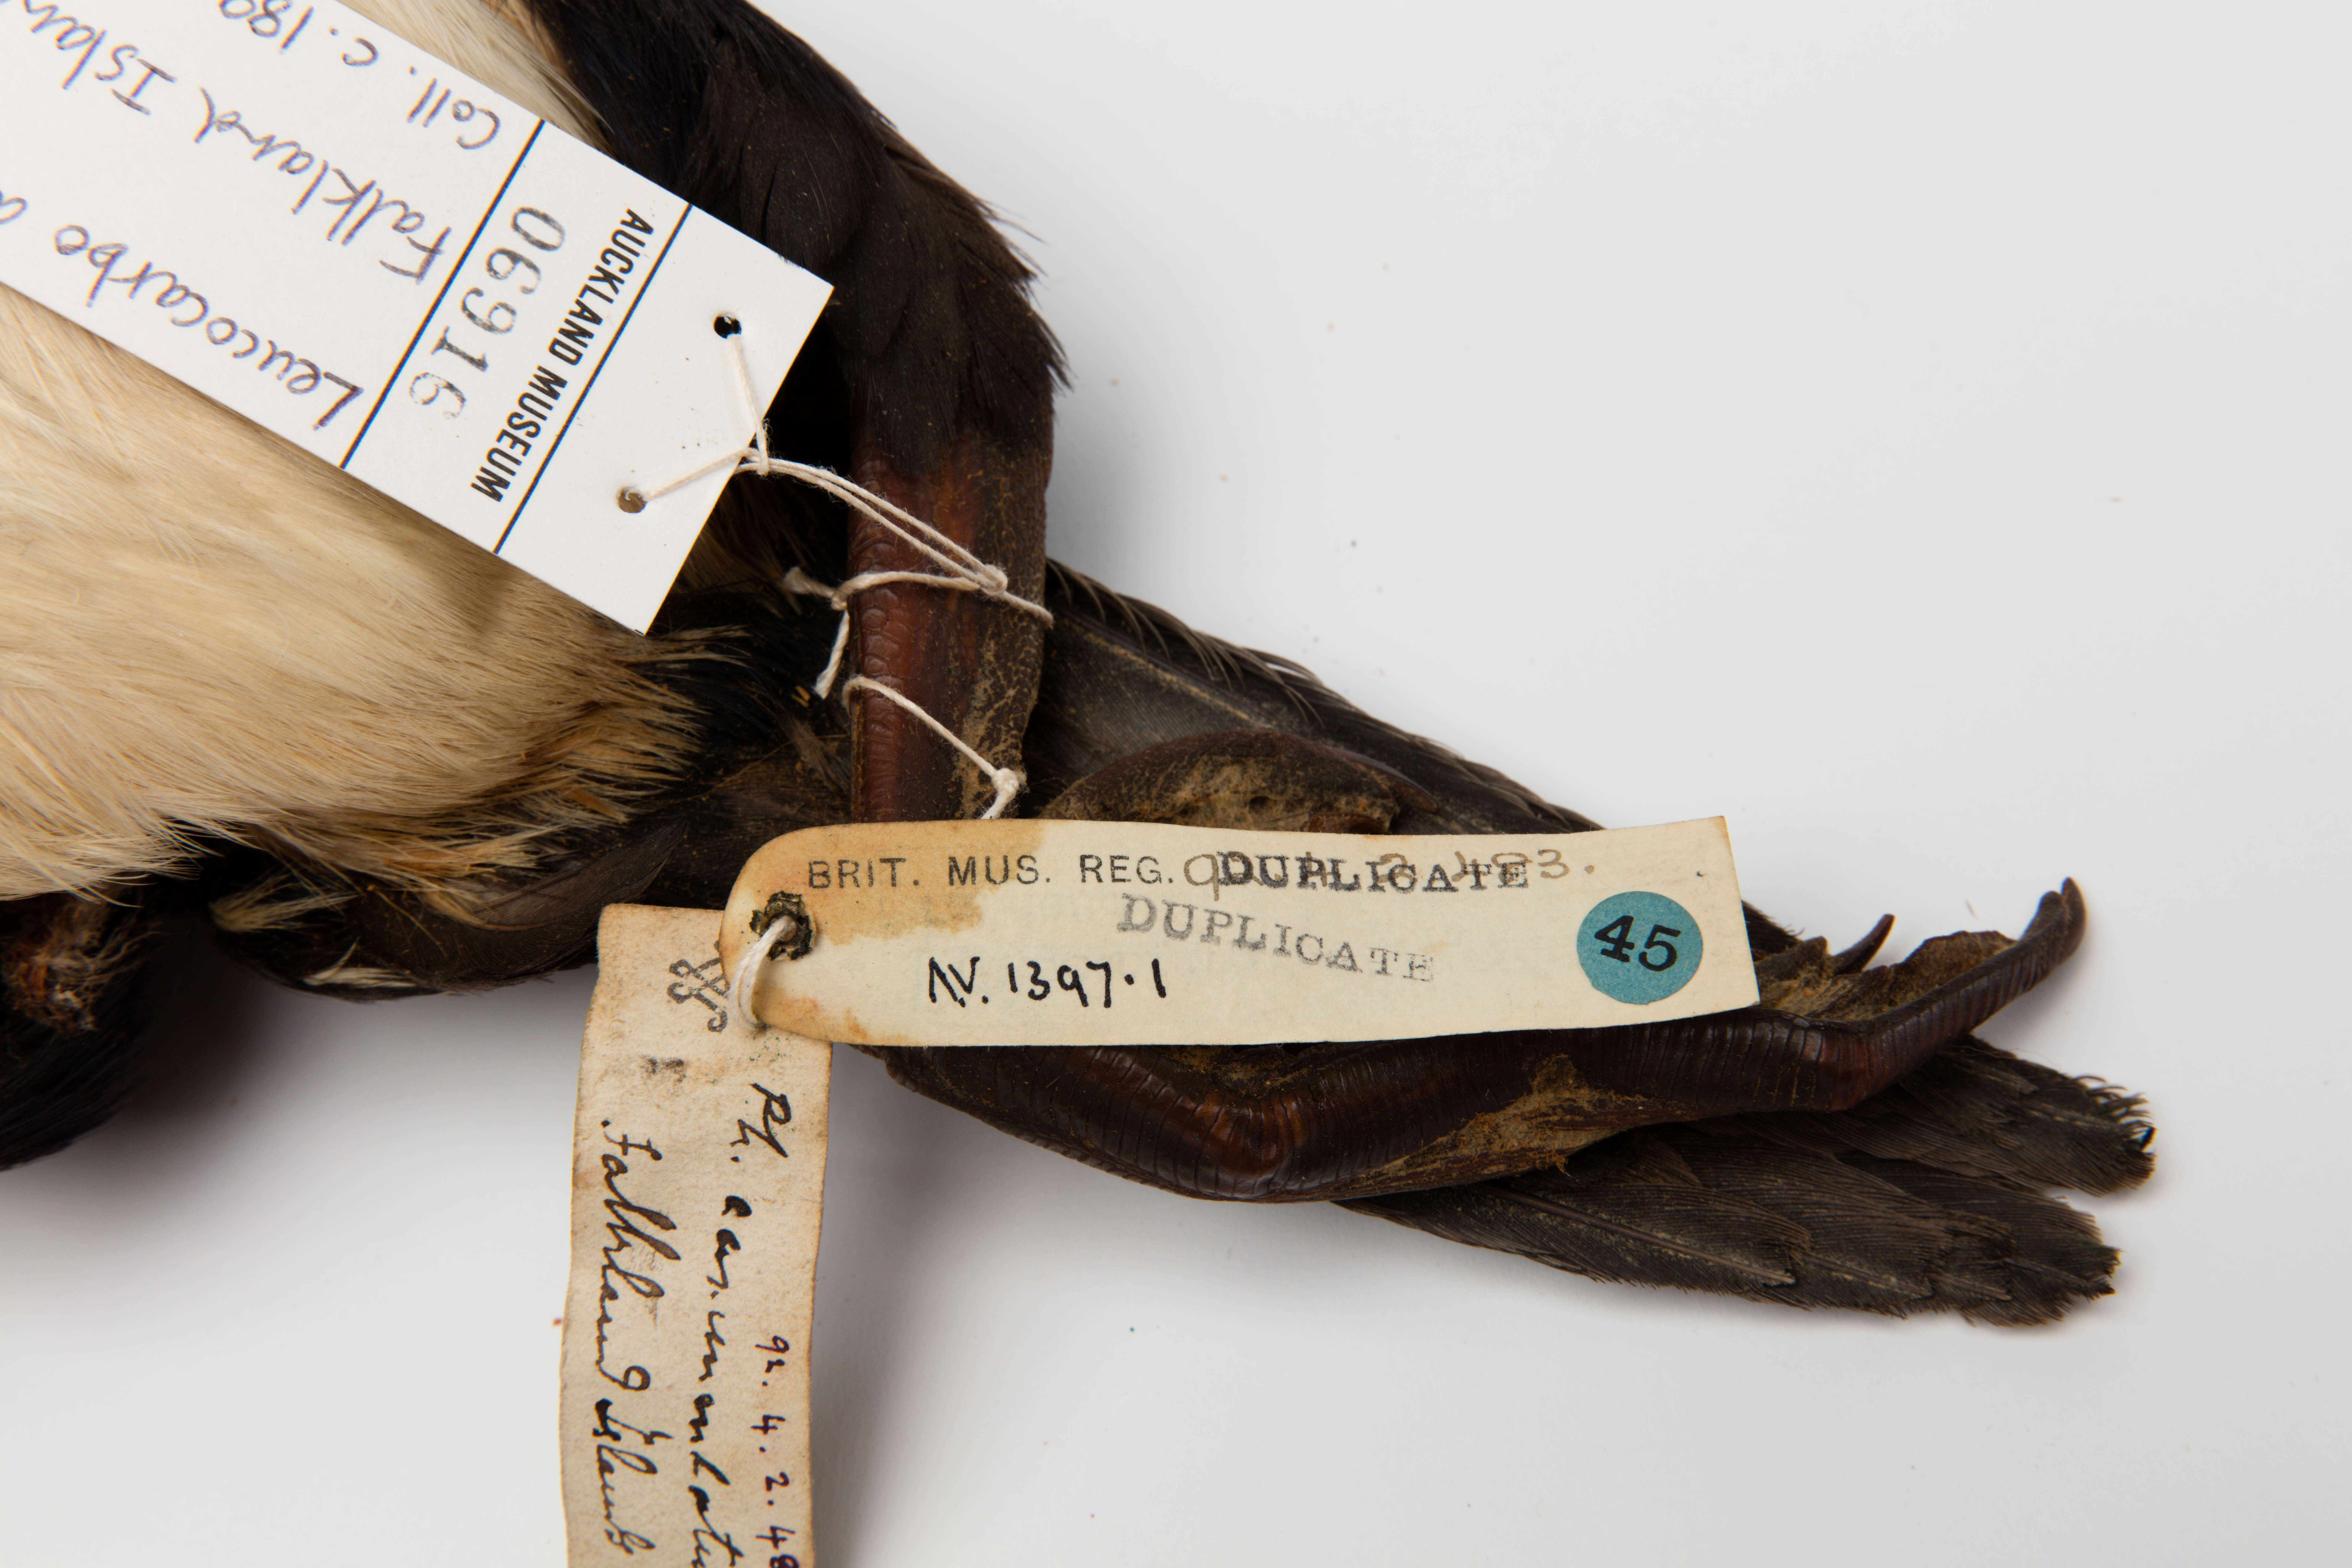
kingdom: Animalia
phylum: Chordata
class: Aves
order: Suliformes
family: Phalacrocoracidae
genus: Leucocarbo
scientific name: Leucocarbo albiventer
